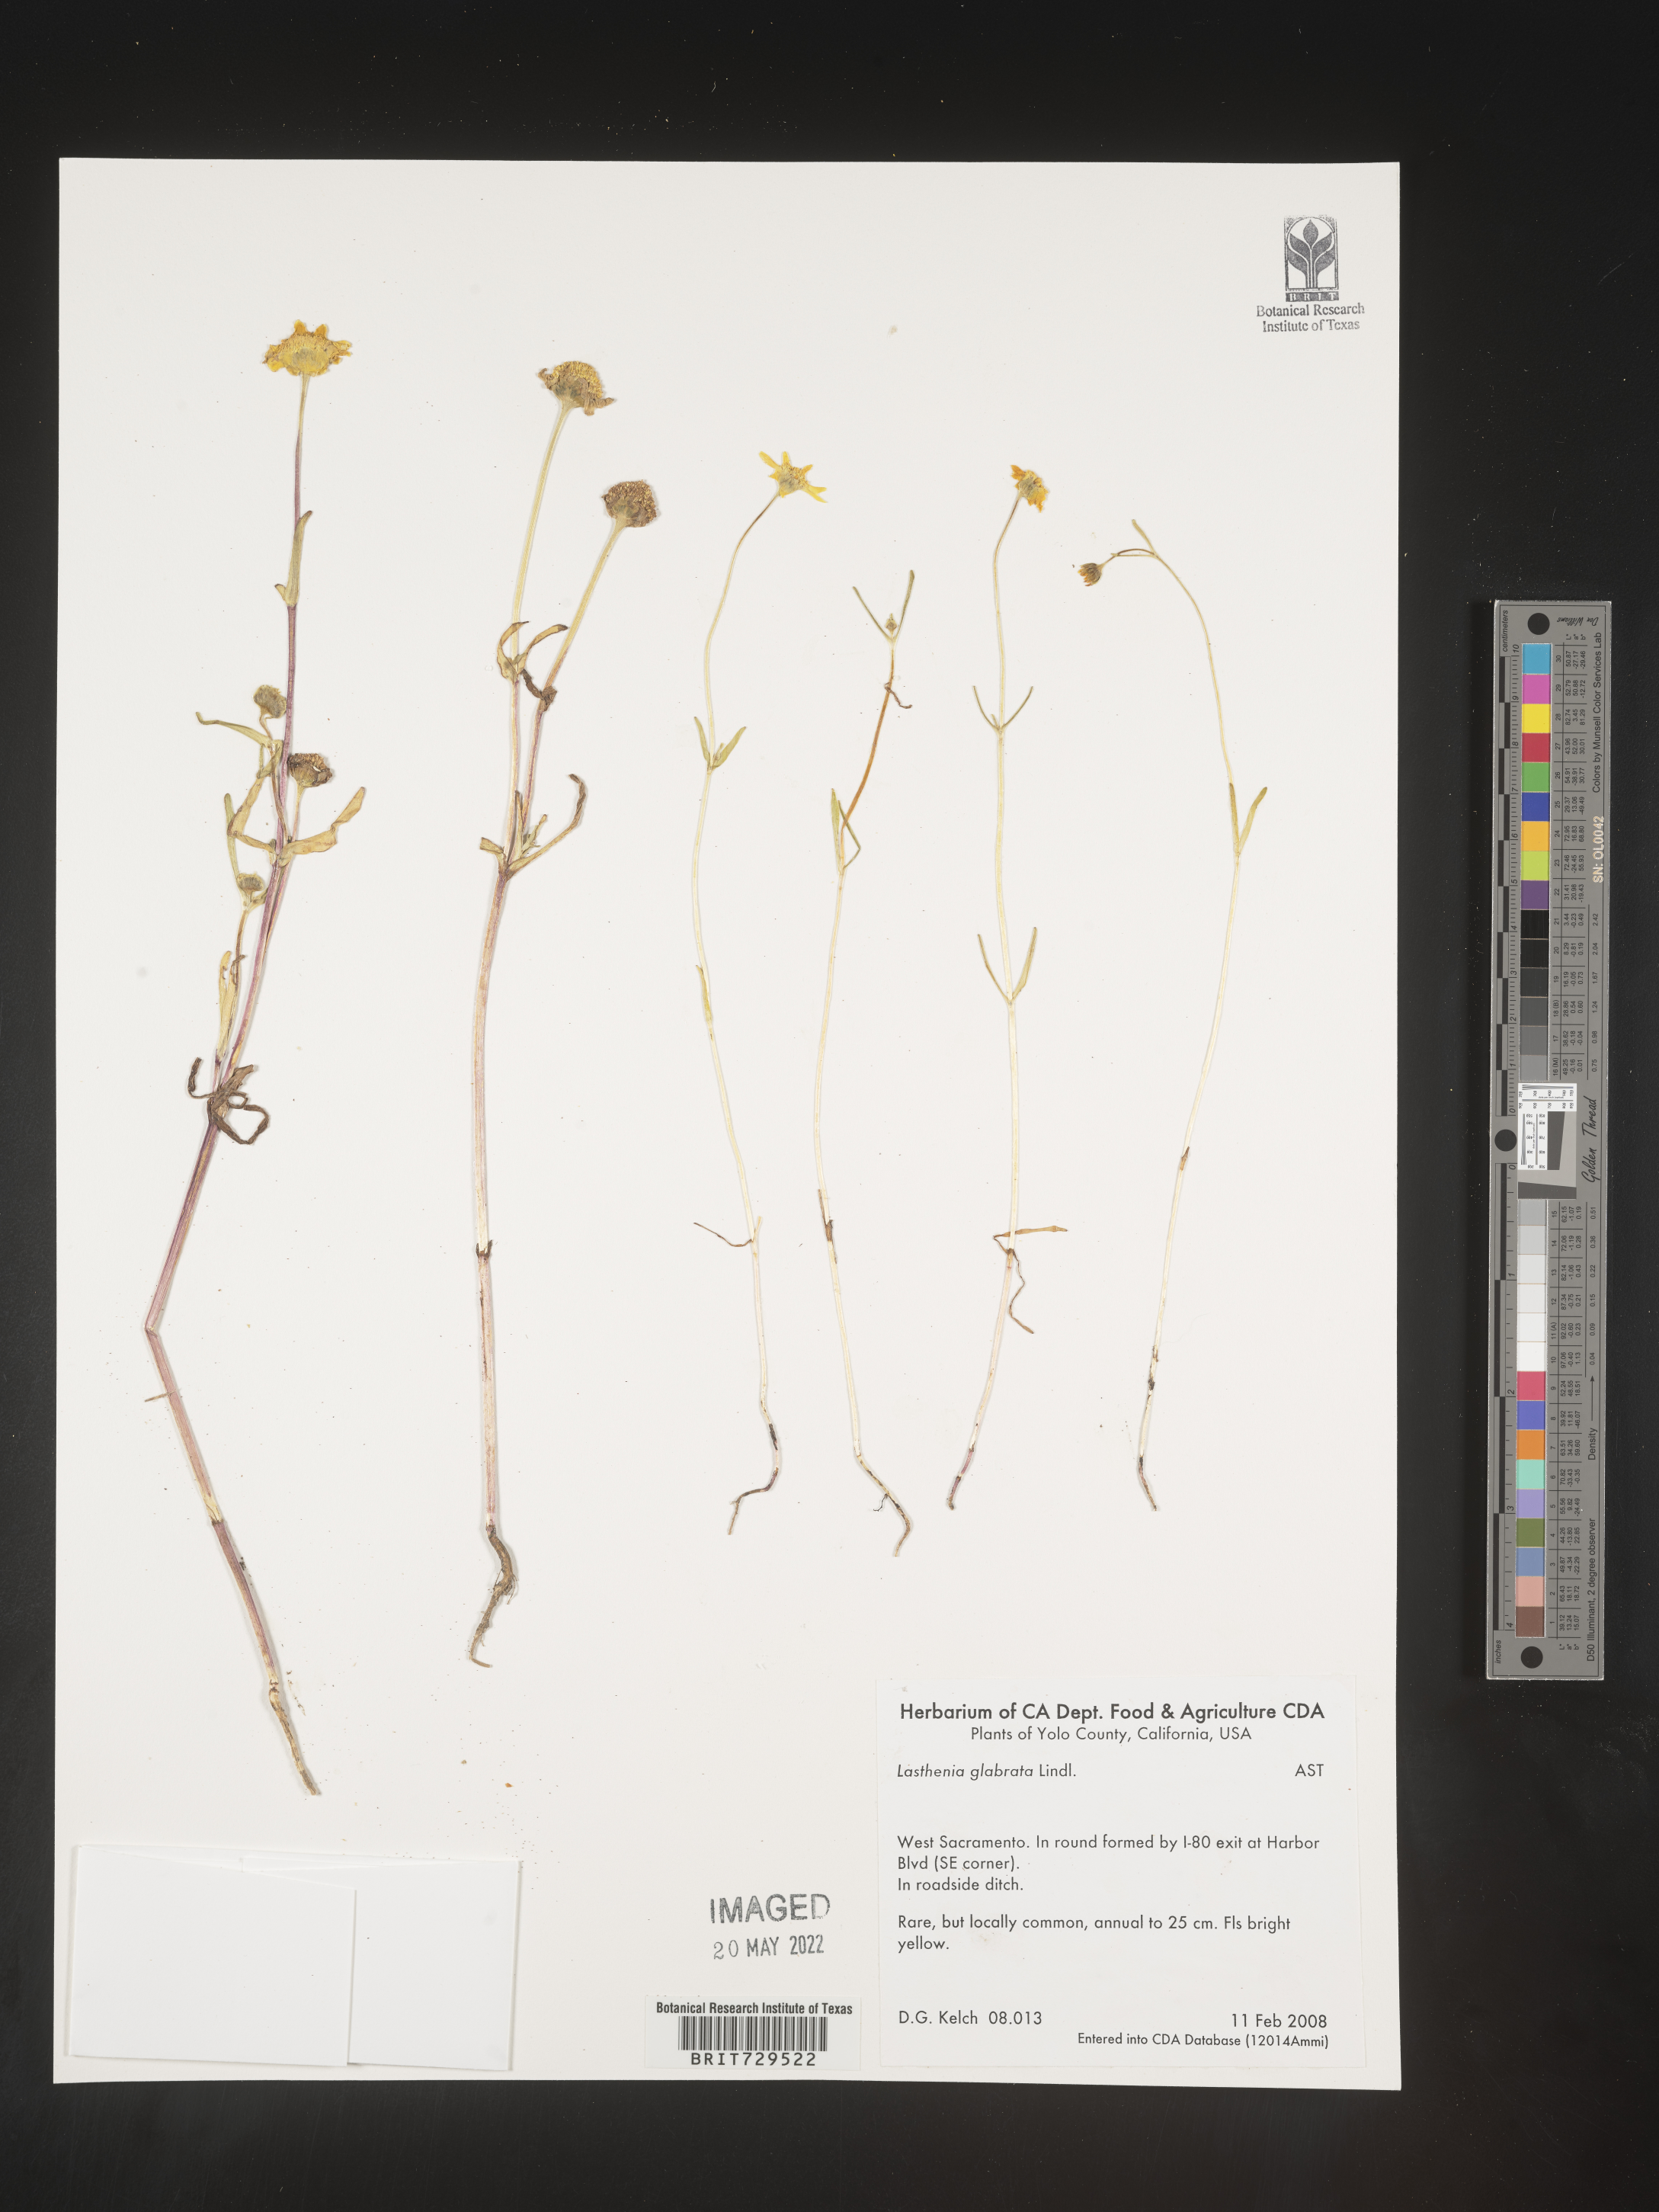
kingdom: Plantae
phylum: Tracheophyta
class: Magnoliopsida
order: Asterales
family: Asteraceae
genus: Lasthenia
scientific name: Lasthenia
